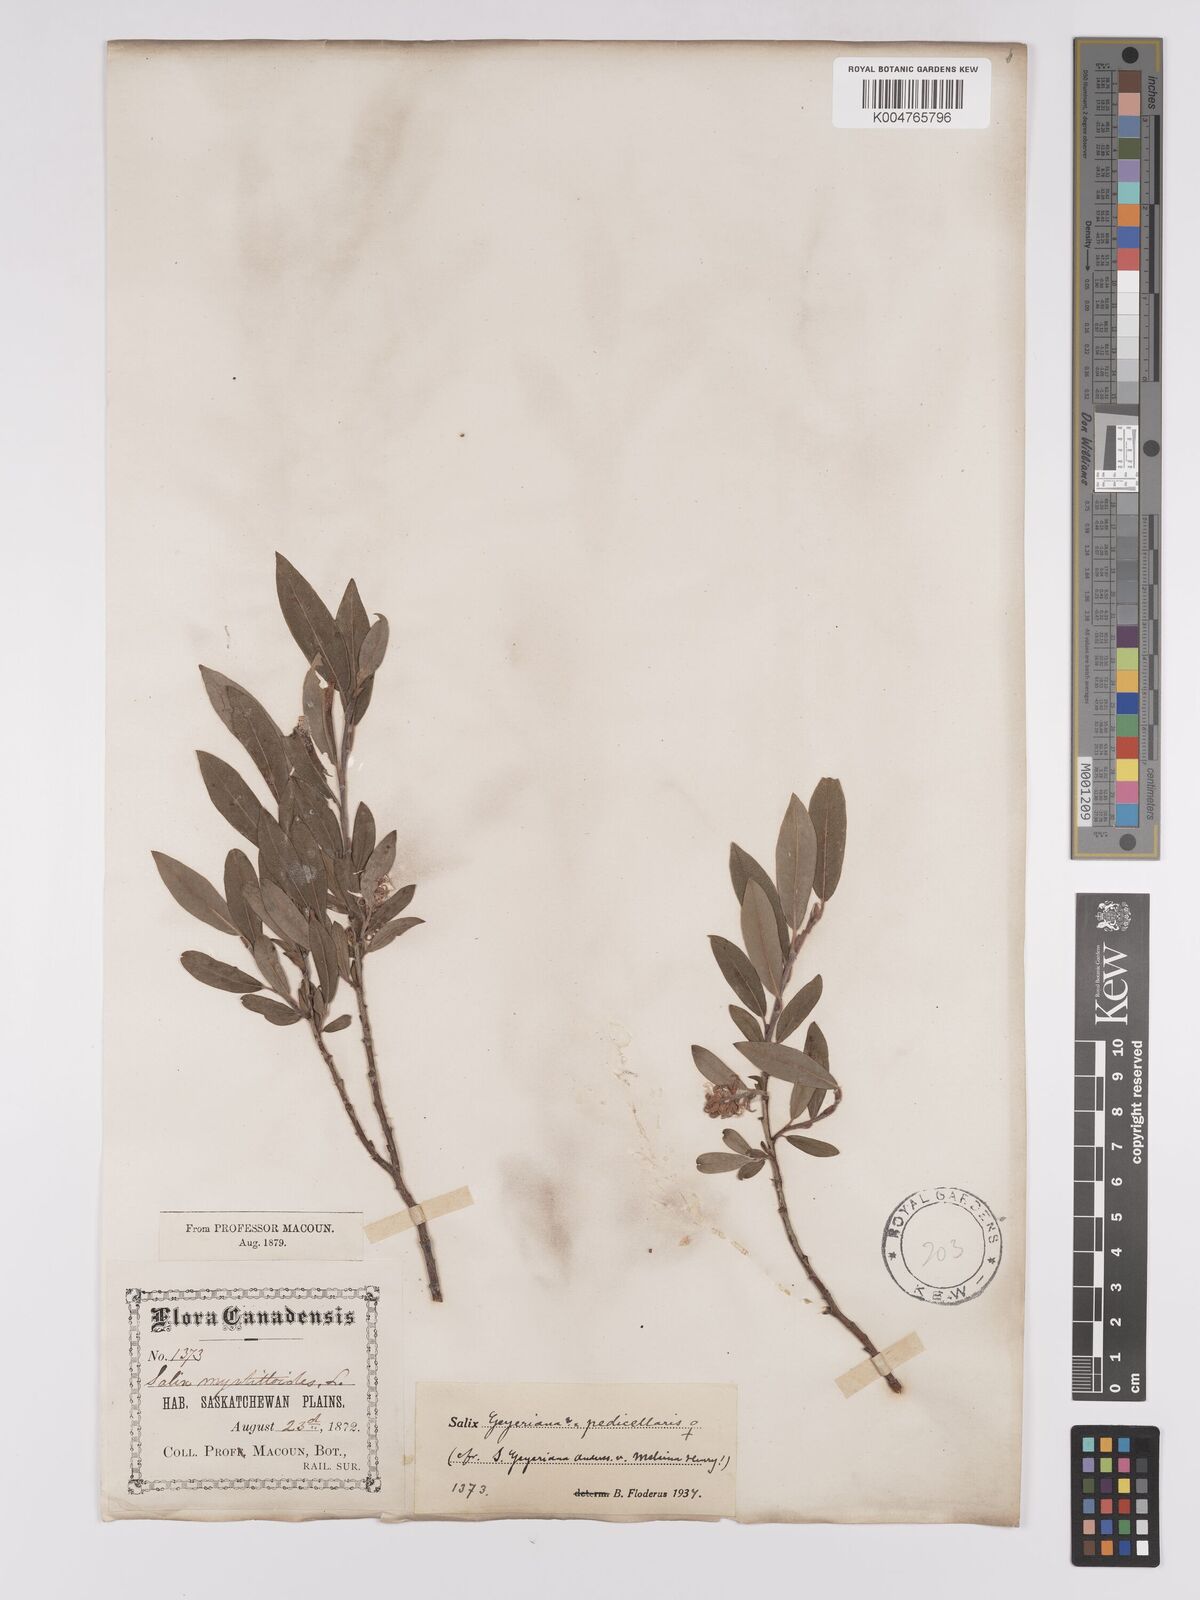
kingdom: Plantae
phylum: Tracheophyta
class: Magnoliopsida
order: Malpighiales
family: Salicaceae
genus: Salix
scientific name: Salix geyeriana
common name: Geyer's willow
